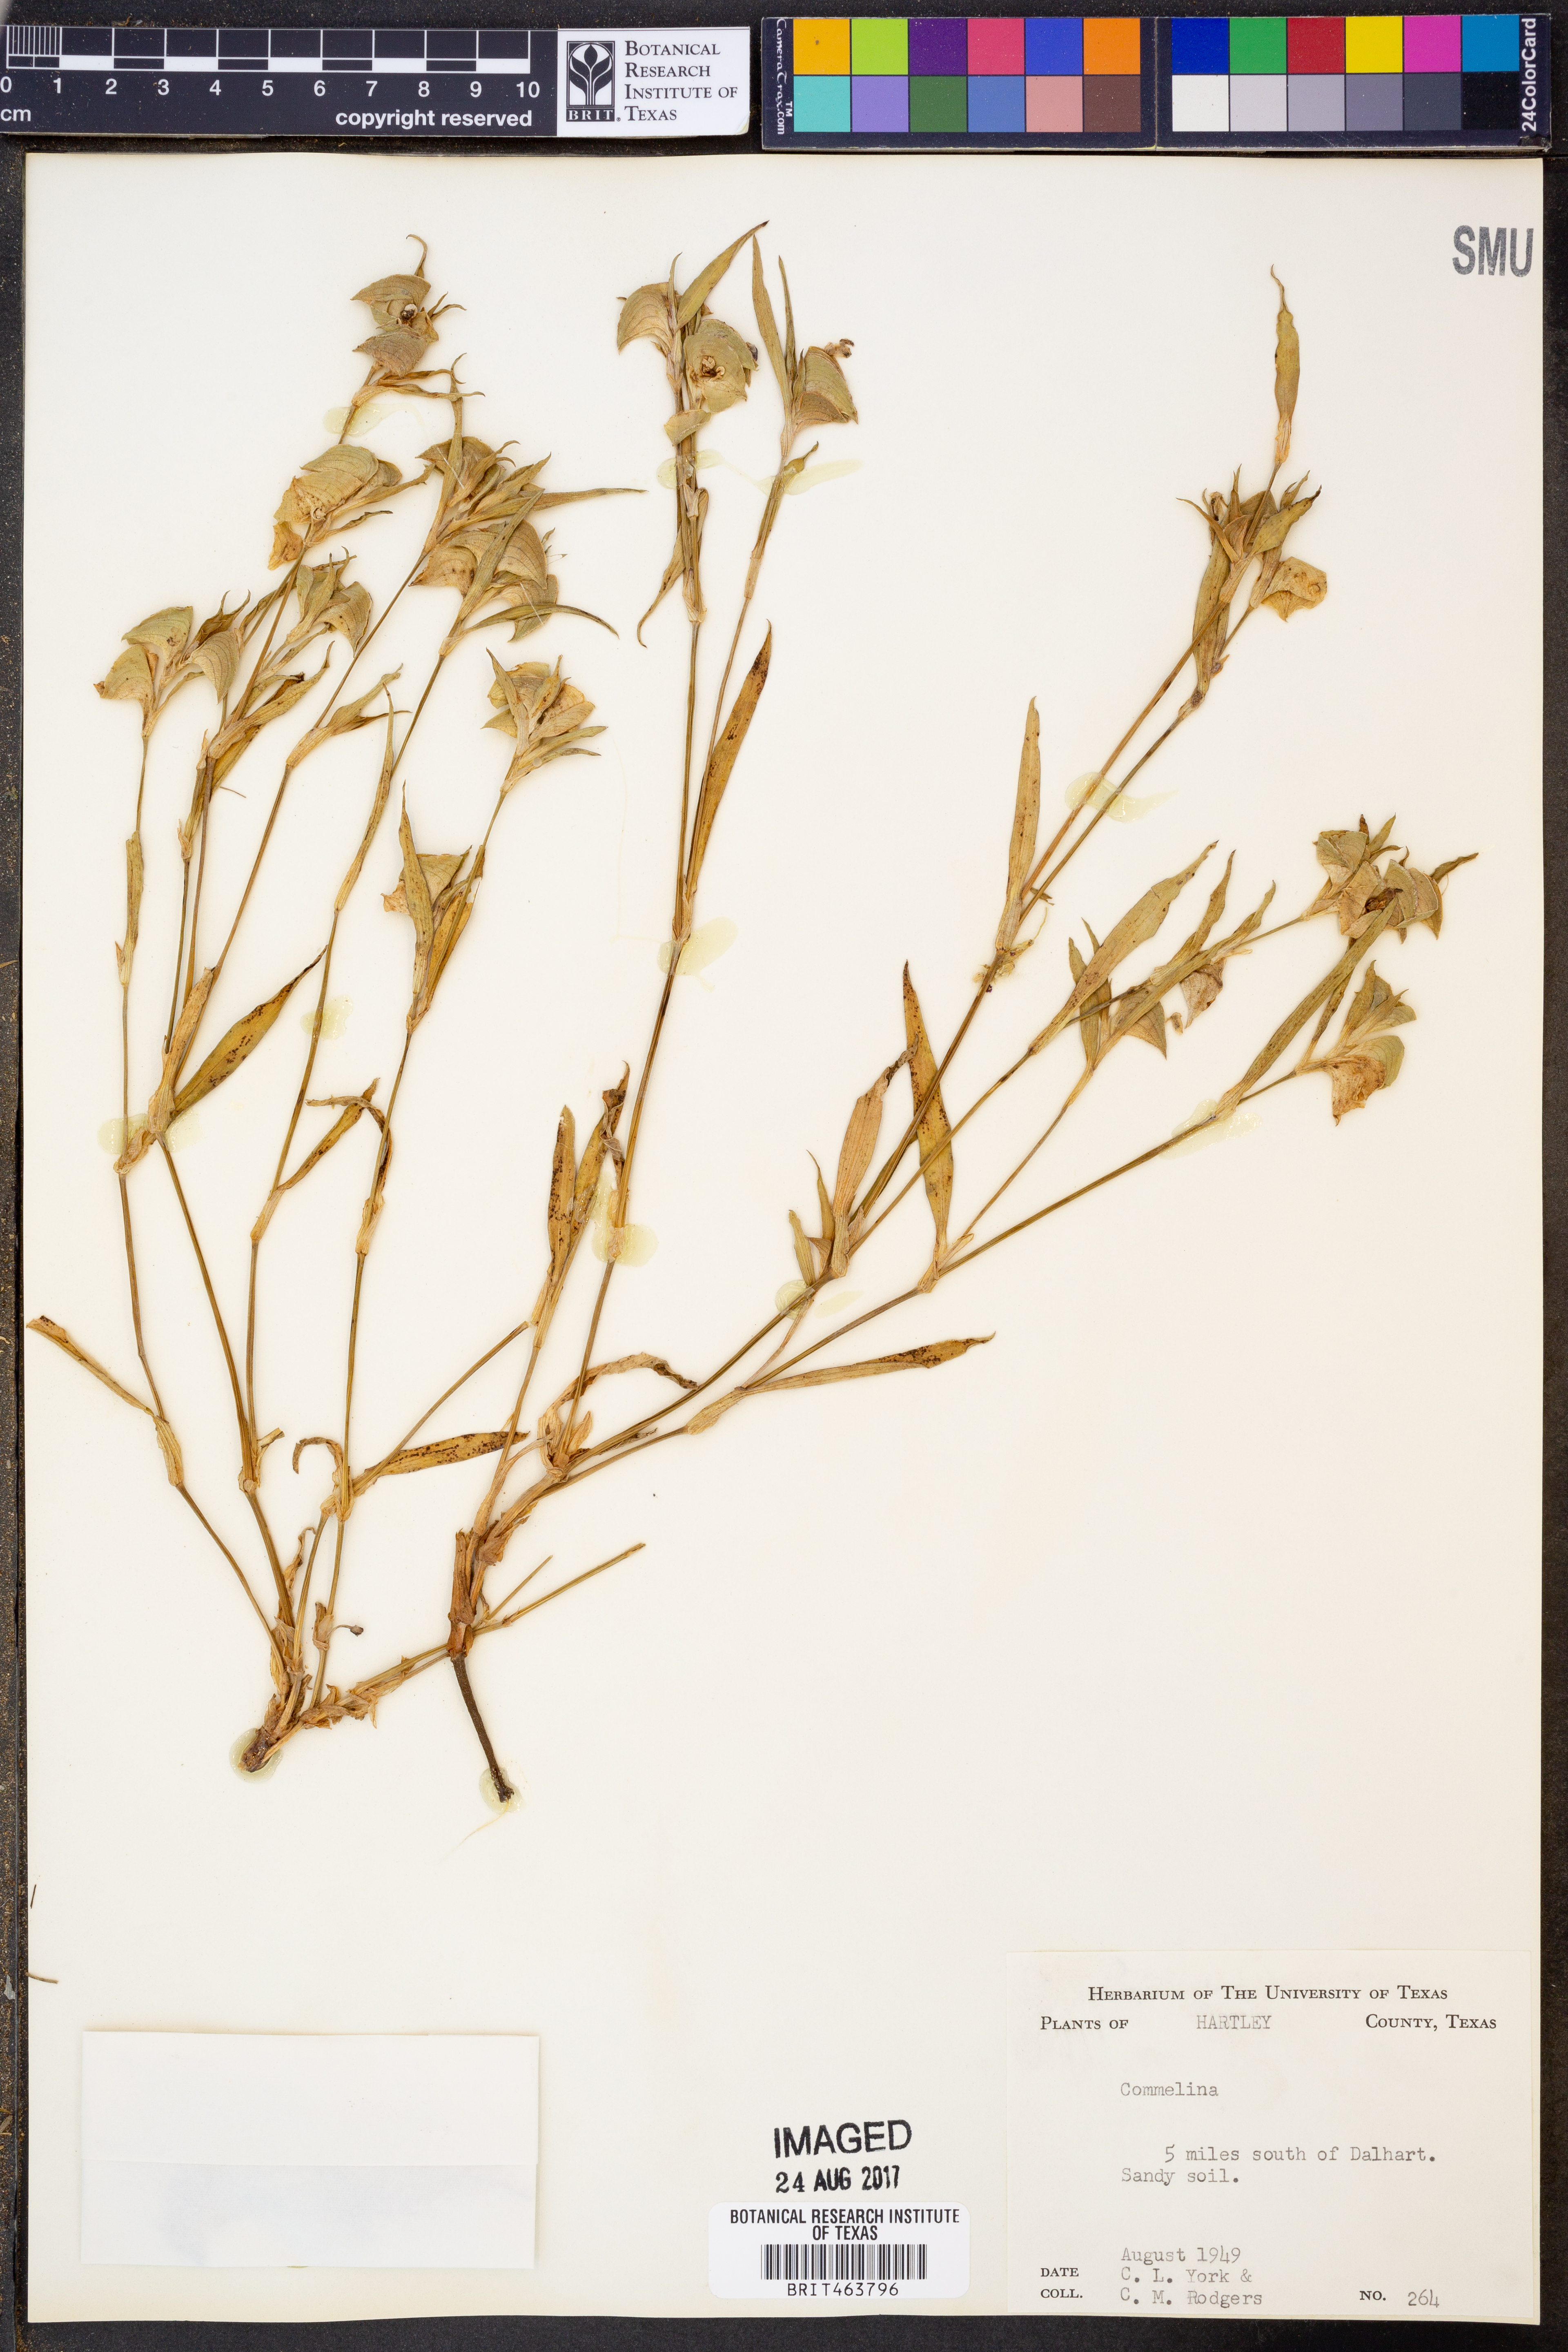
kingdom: Plantae
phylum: Tracheophyta
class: Liliopsida
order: Commelinales
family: Commelinaceae
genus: Commelina
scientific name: Commelina
